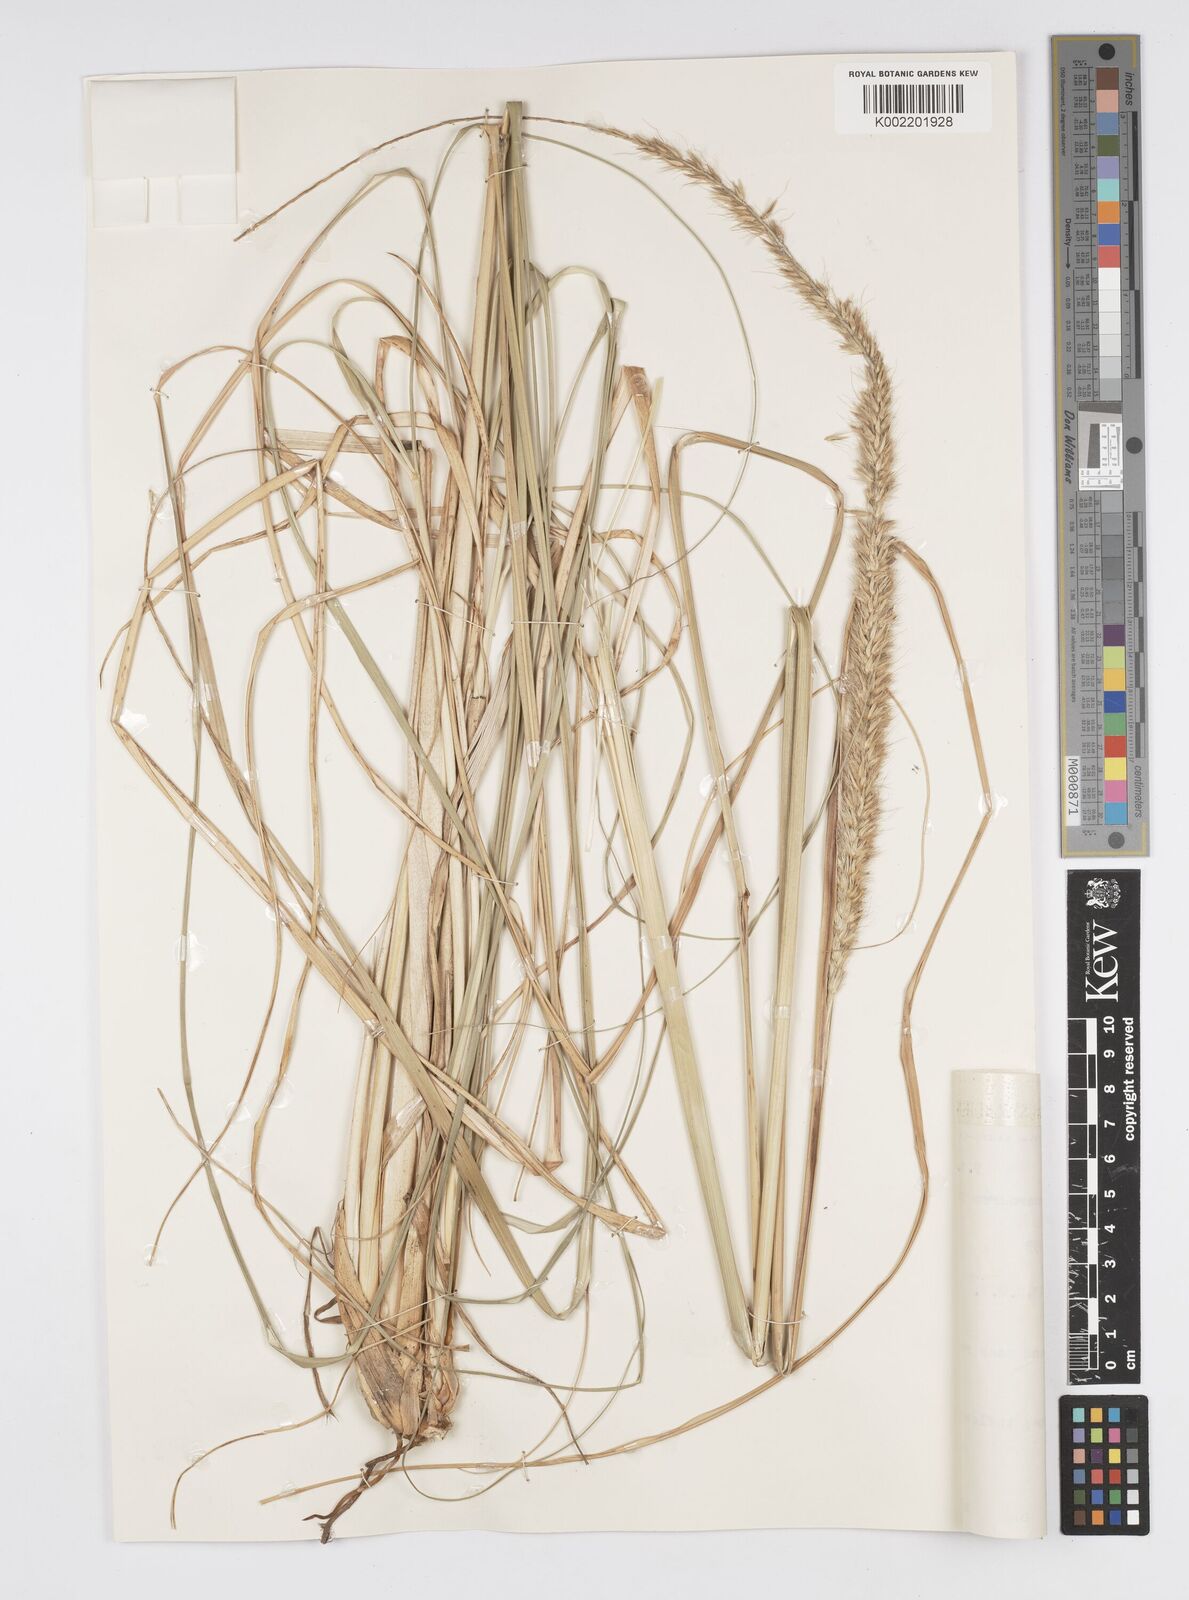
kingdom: Plantae
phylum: Tracheophyta
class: Liliopsida
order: Poales
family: Poaceae
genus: Cenchrus
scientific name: Cenchrus caudatus
